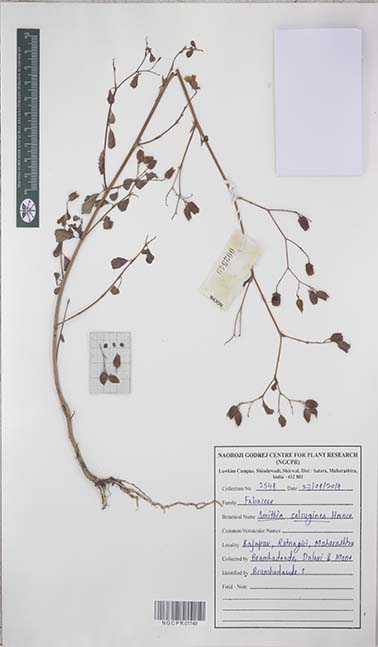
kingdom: Plantae
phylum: Tracheophyta
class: Magnoliopsida
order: Fabales
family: Fabaceae
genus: Smithia
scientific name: Smithia salsuginea
